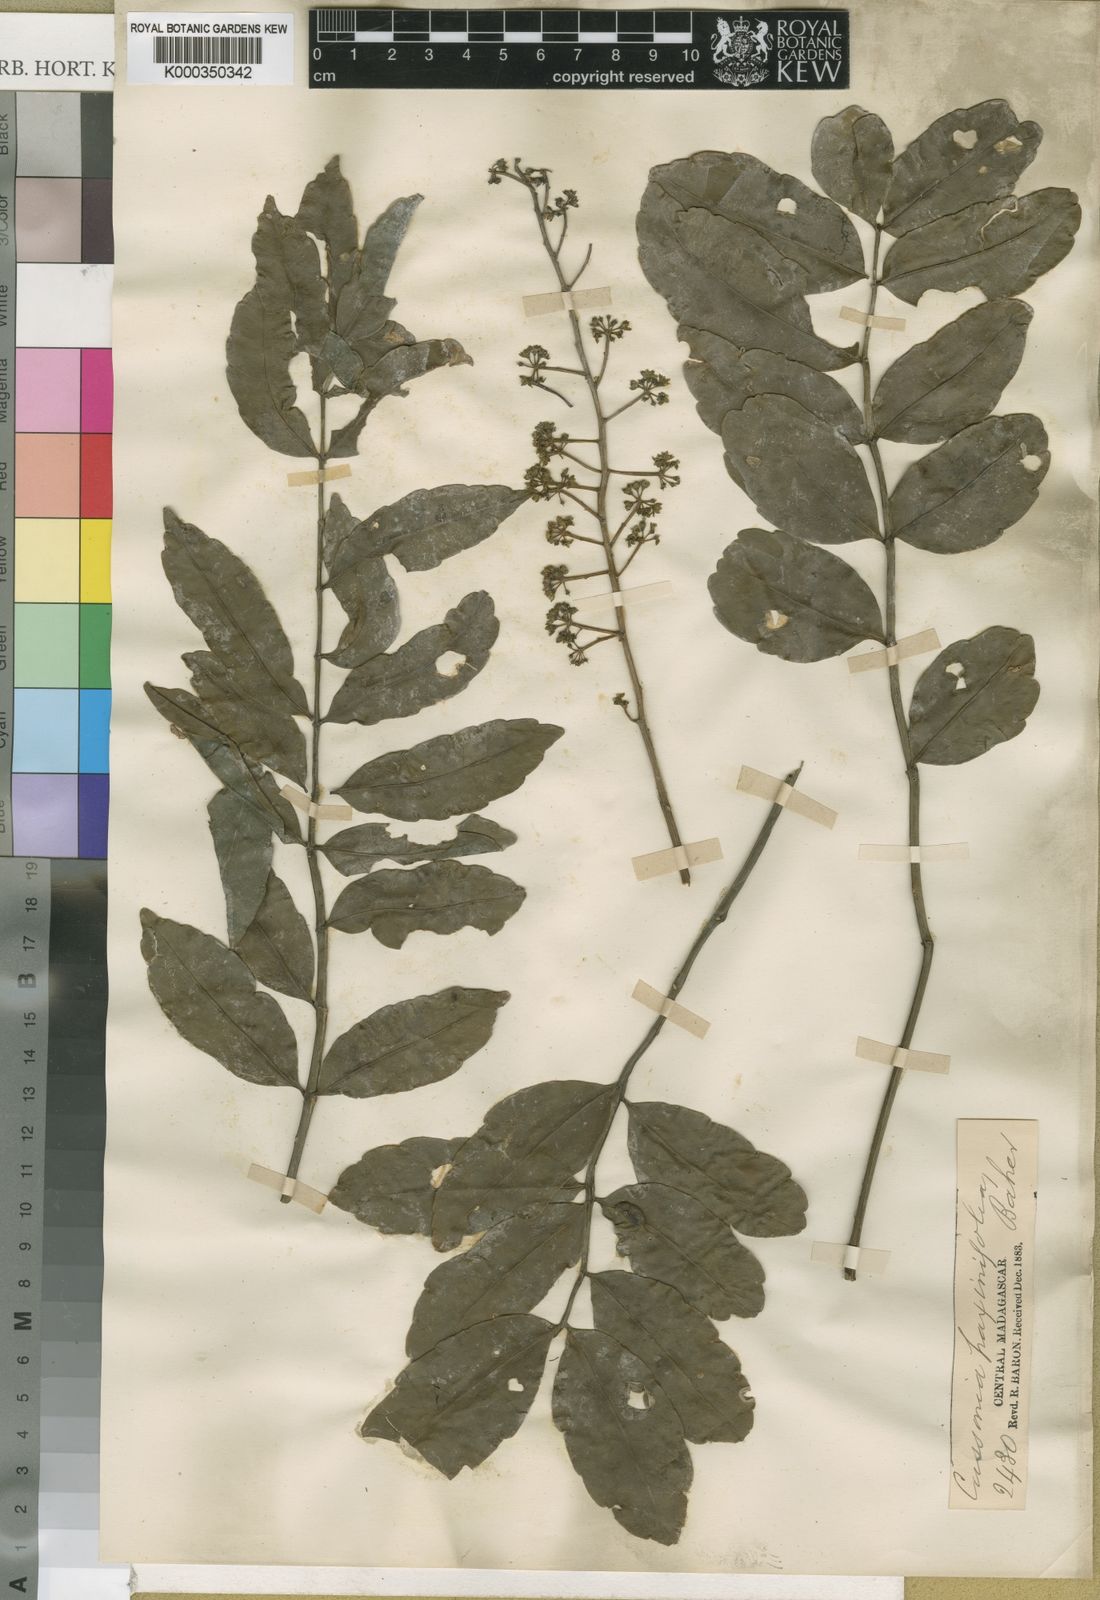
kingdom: Plantae
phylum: Tracheophyta
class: Magnoliopsida
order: Apiales
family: Araliaceae
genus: Polyscias
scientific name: Polyscias fraxinifolia
